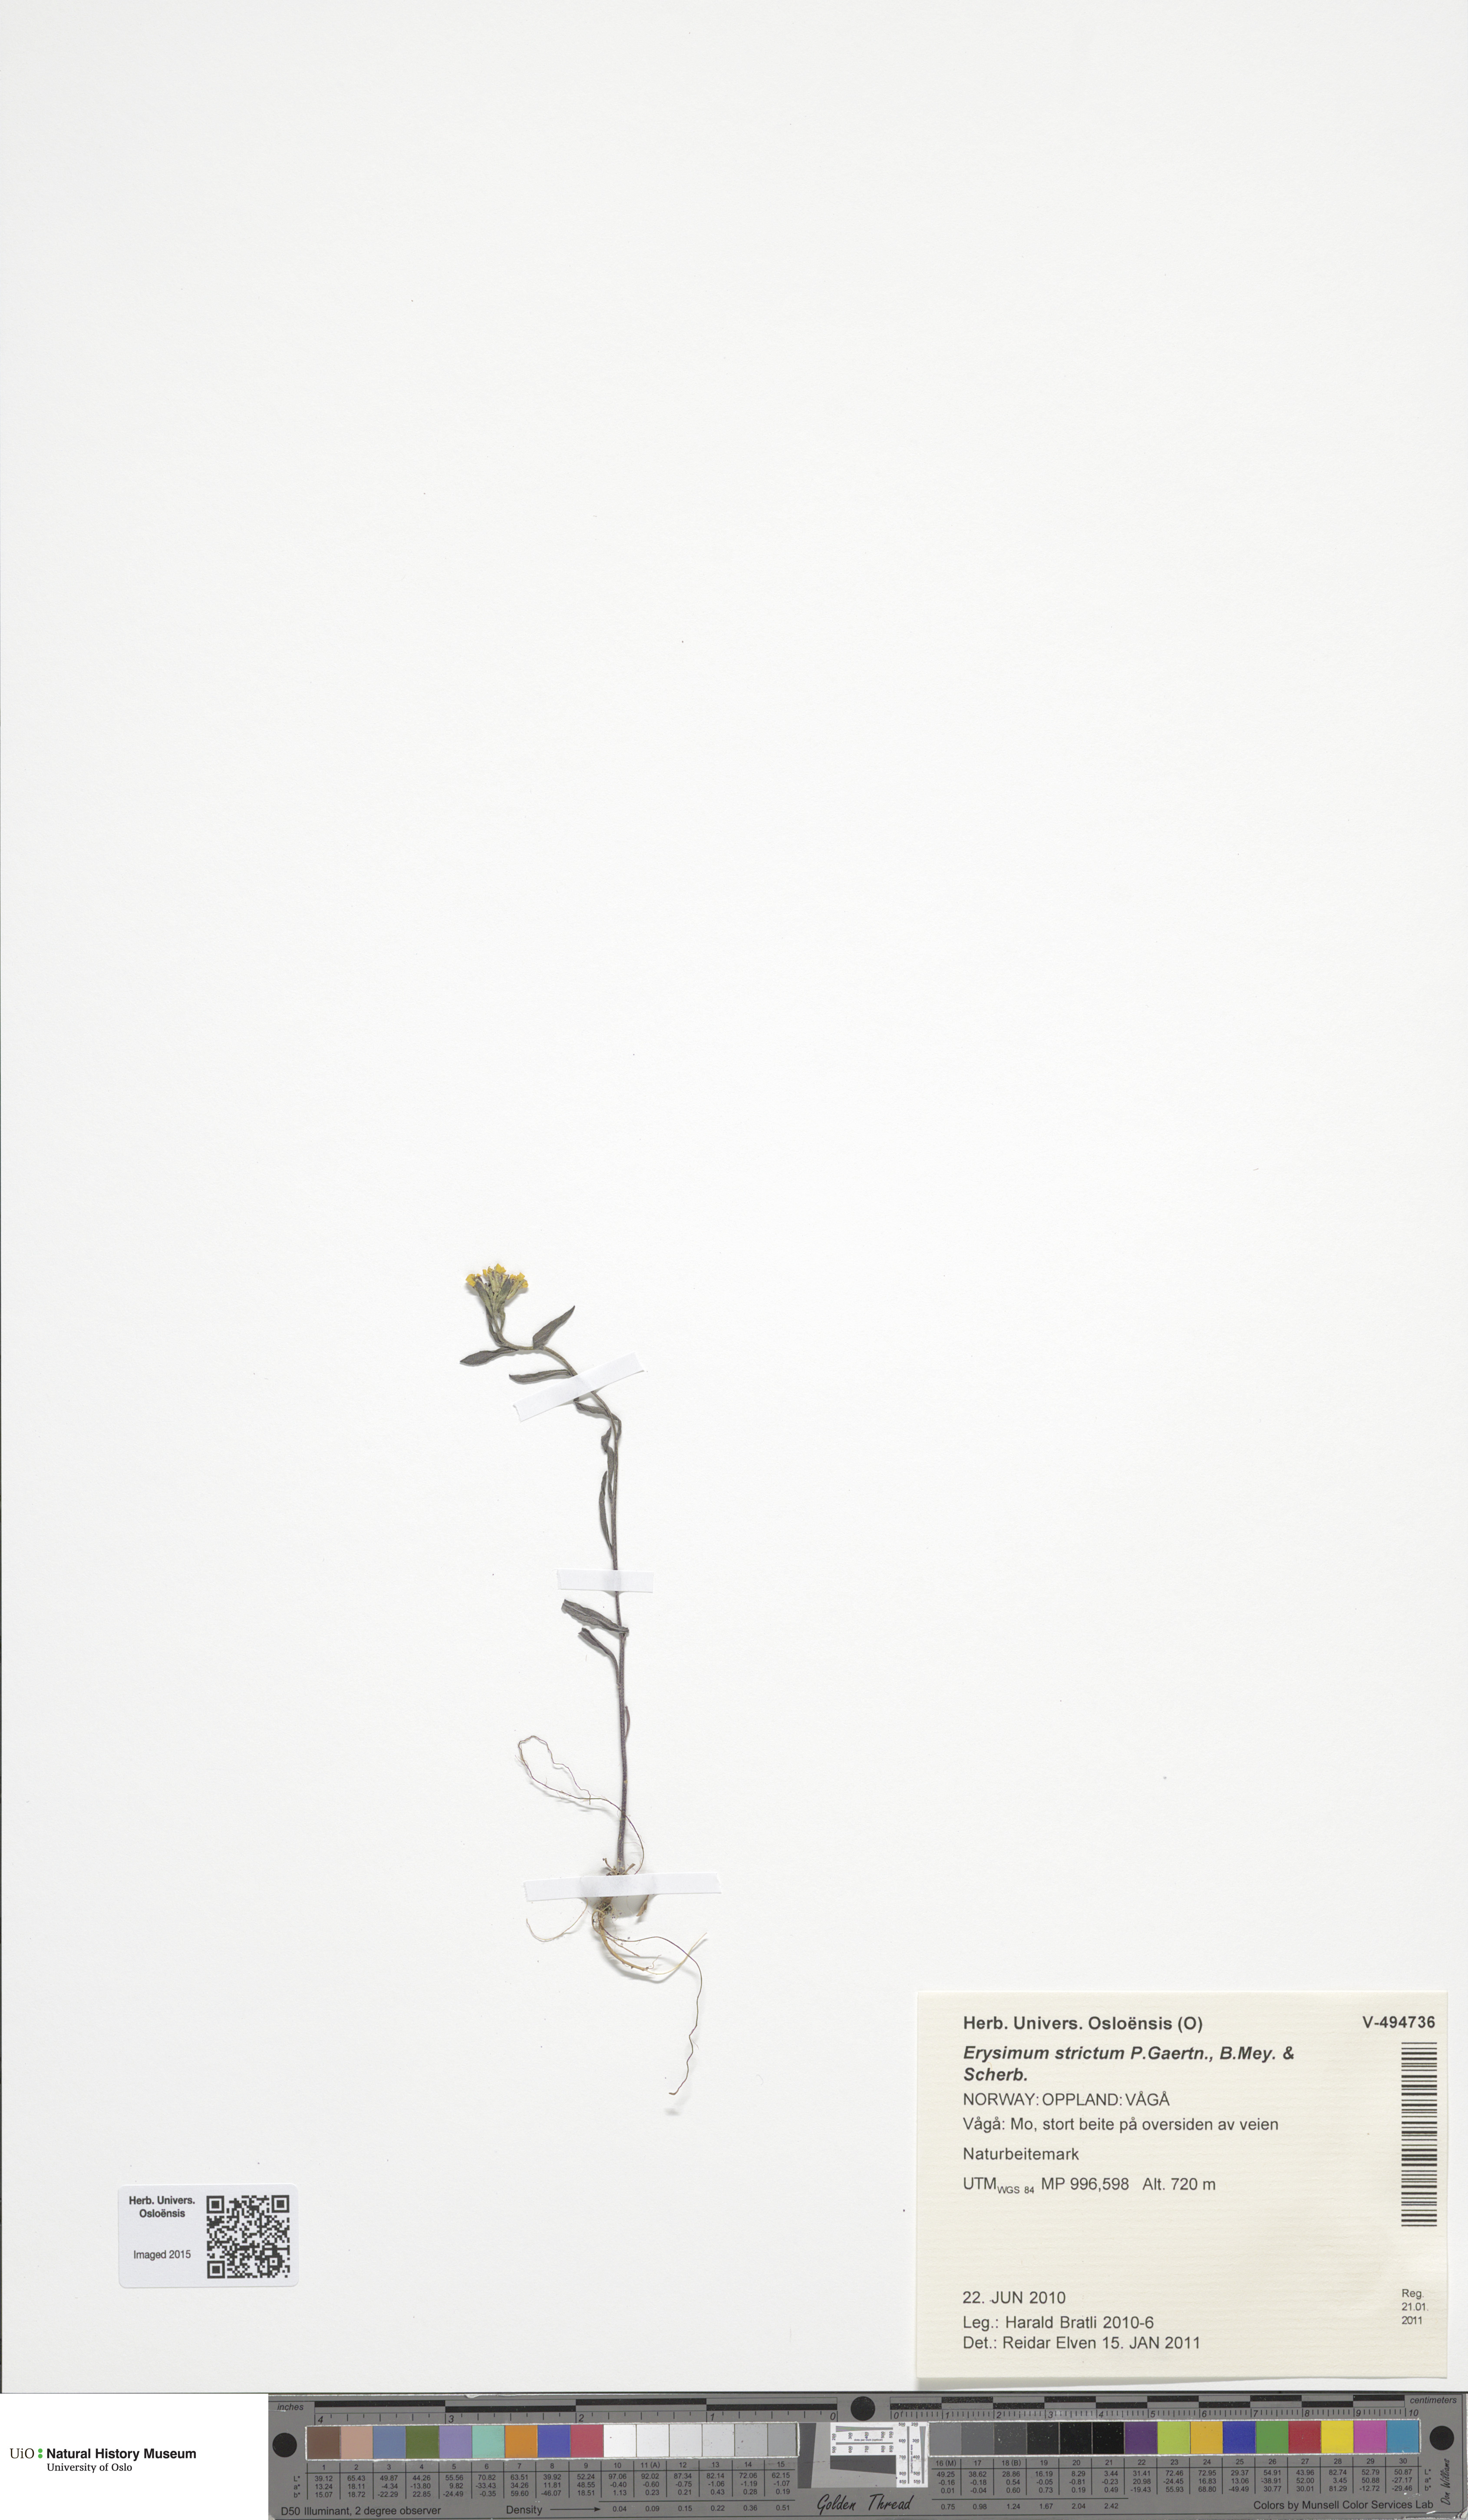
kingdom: Plantae
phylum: Tracheophyta
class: Magnoliopsida
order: Brassicales
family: Brassicaceae
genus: Erysimum
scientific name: Erysimum virgatum
